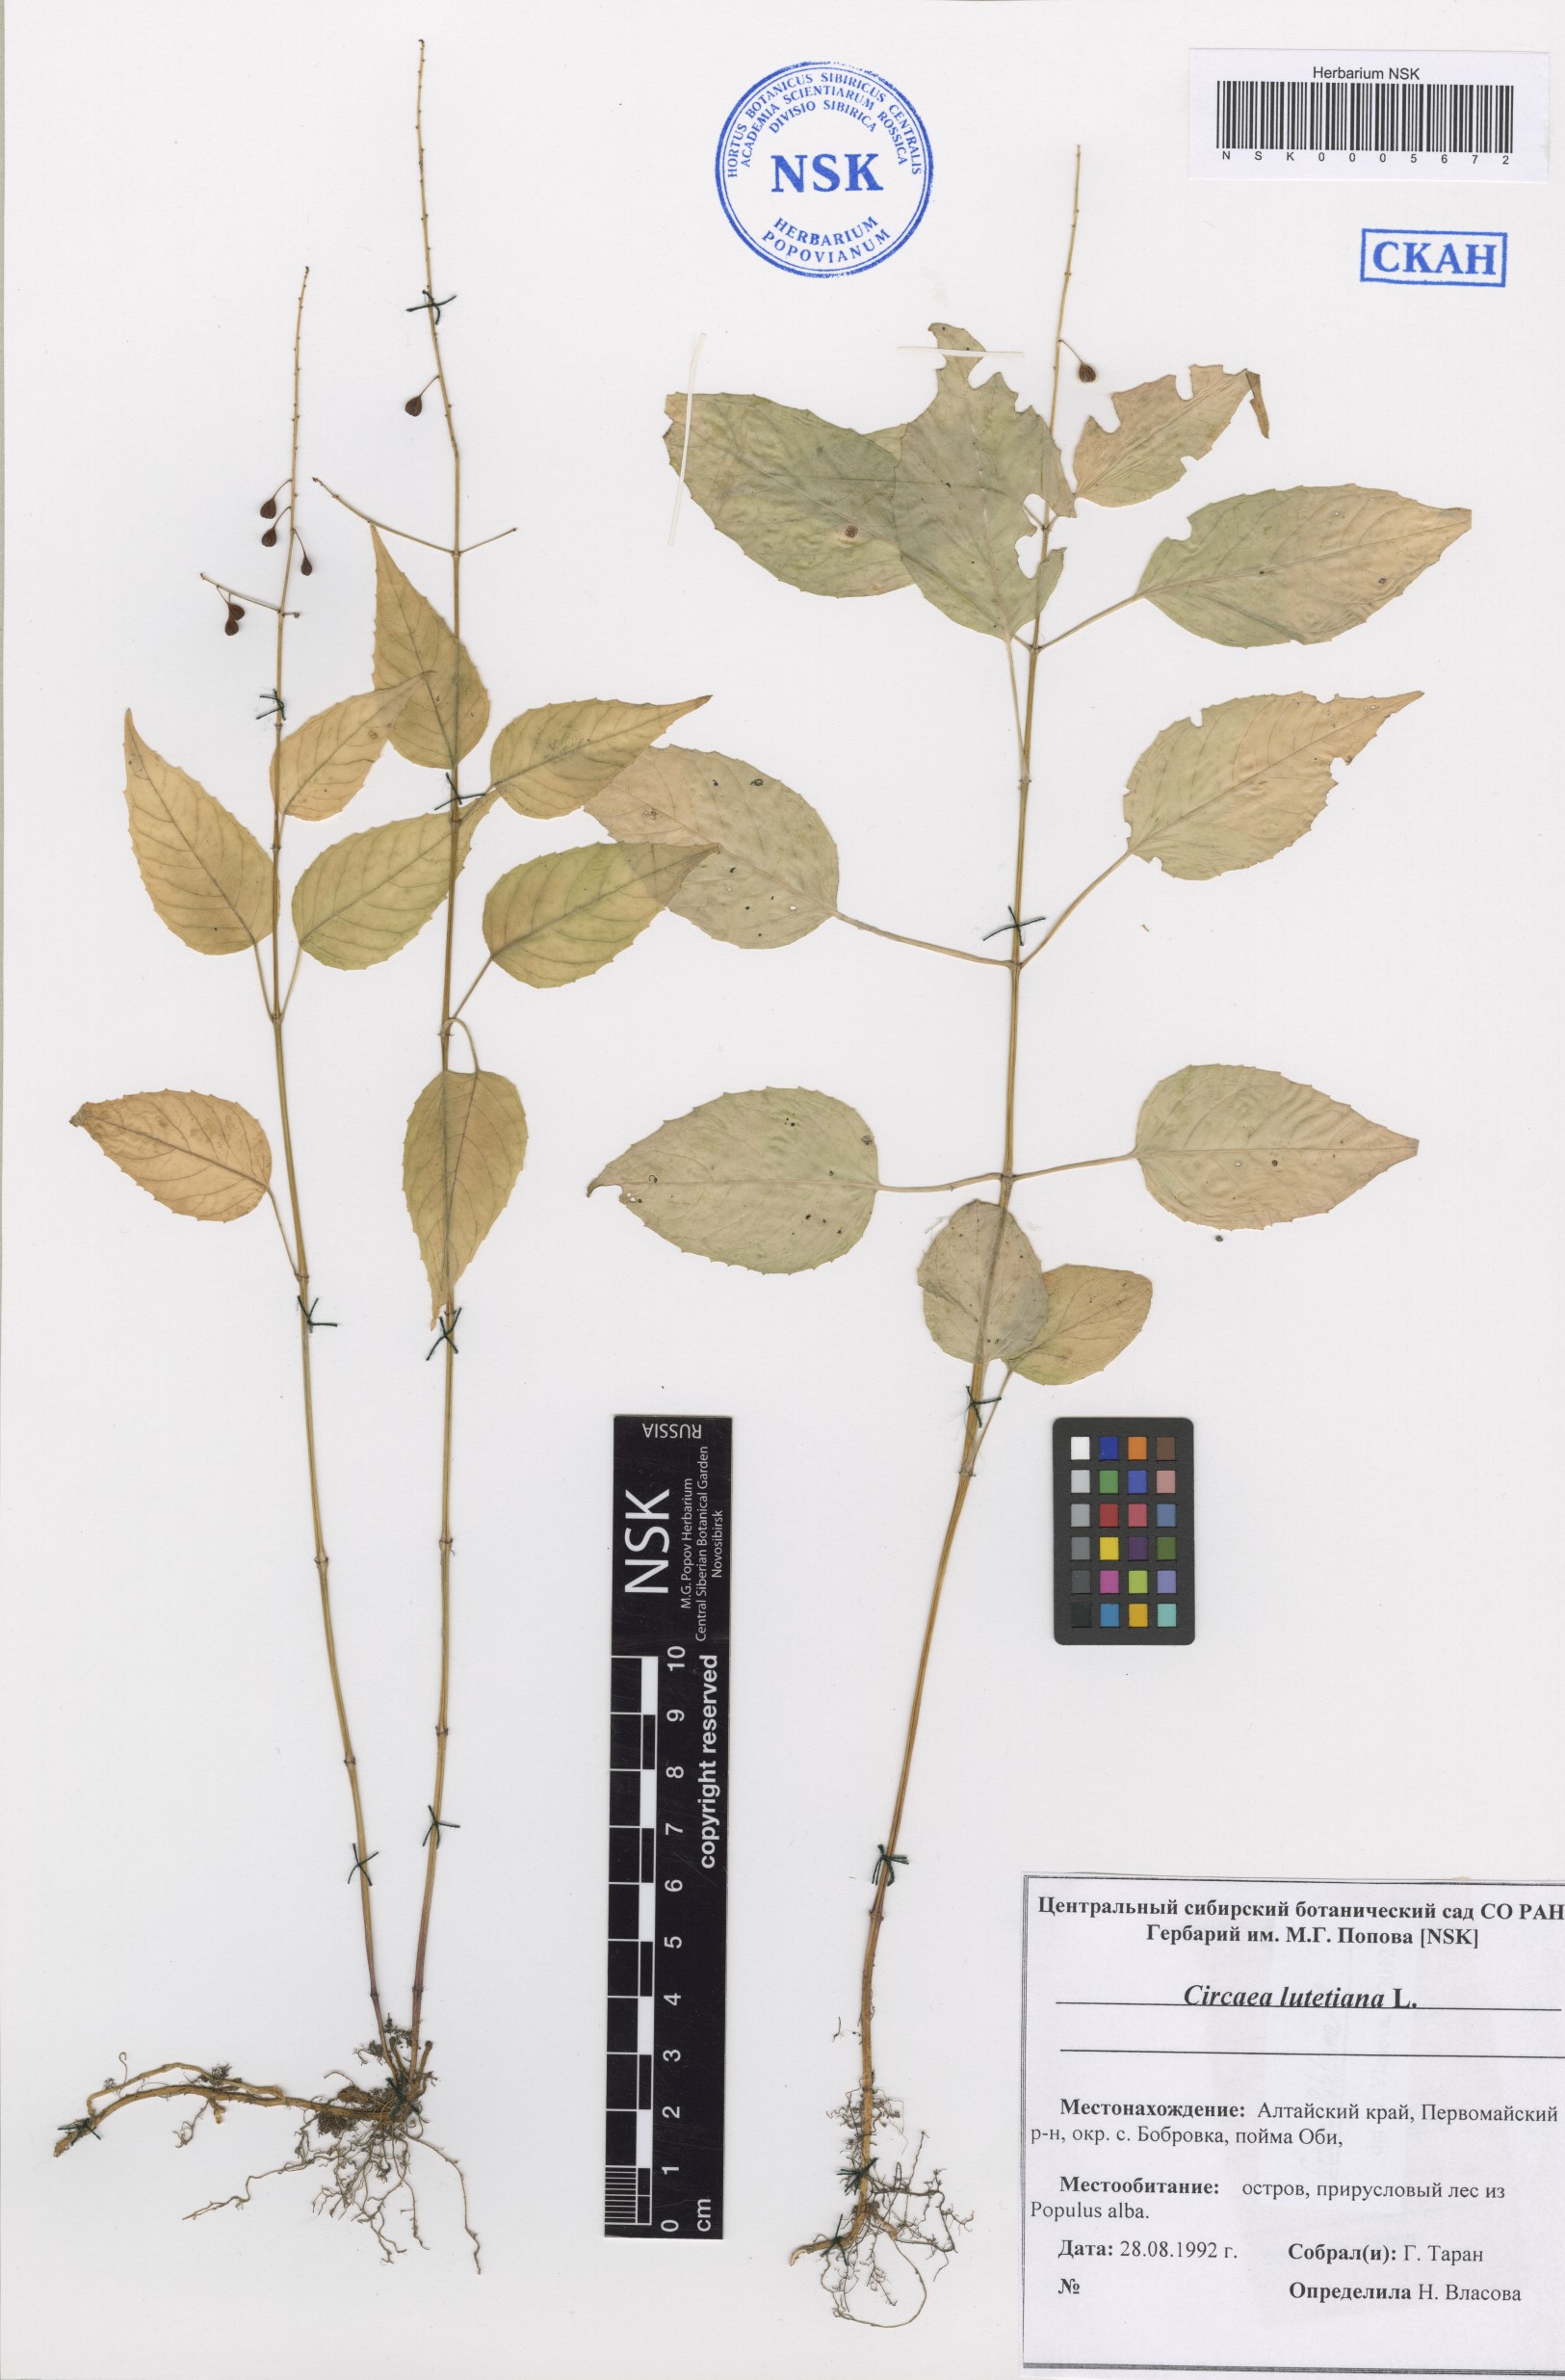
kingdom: Plantae
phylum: Tracheophyta
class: Magnoliopsida
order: Myrtales
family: Onagraceae
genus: Circaea
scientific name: Circaea lutetiana
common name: Enchanter's-nightshade
